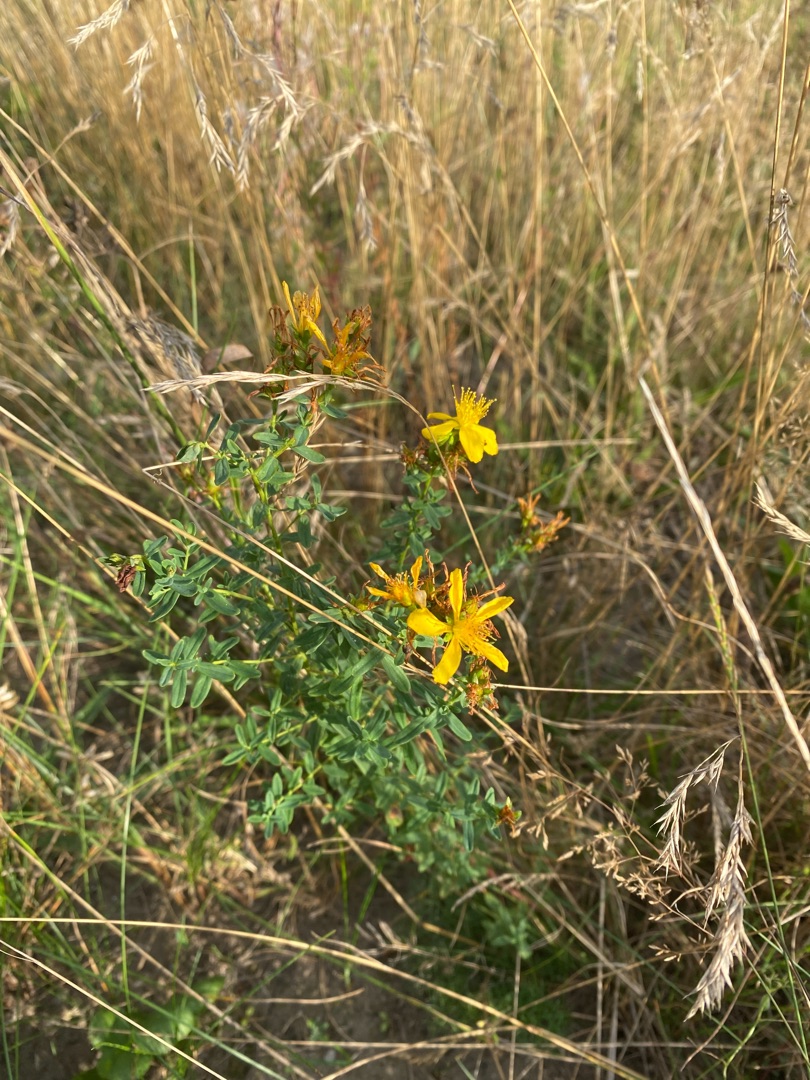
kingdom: Plantae
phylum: Tracheophyta
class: Magnoliopsida
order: Malpighiales
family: Hypericaceae
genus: Hypericum
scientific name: Hypericum maculatum
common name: Kantet perikon
